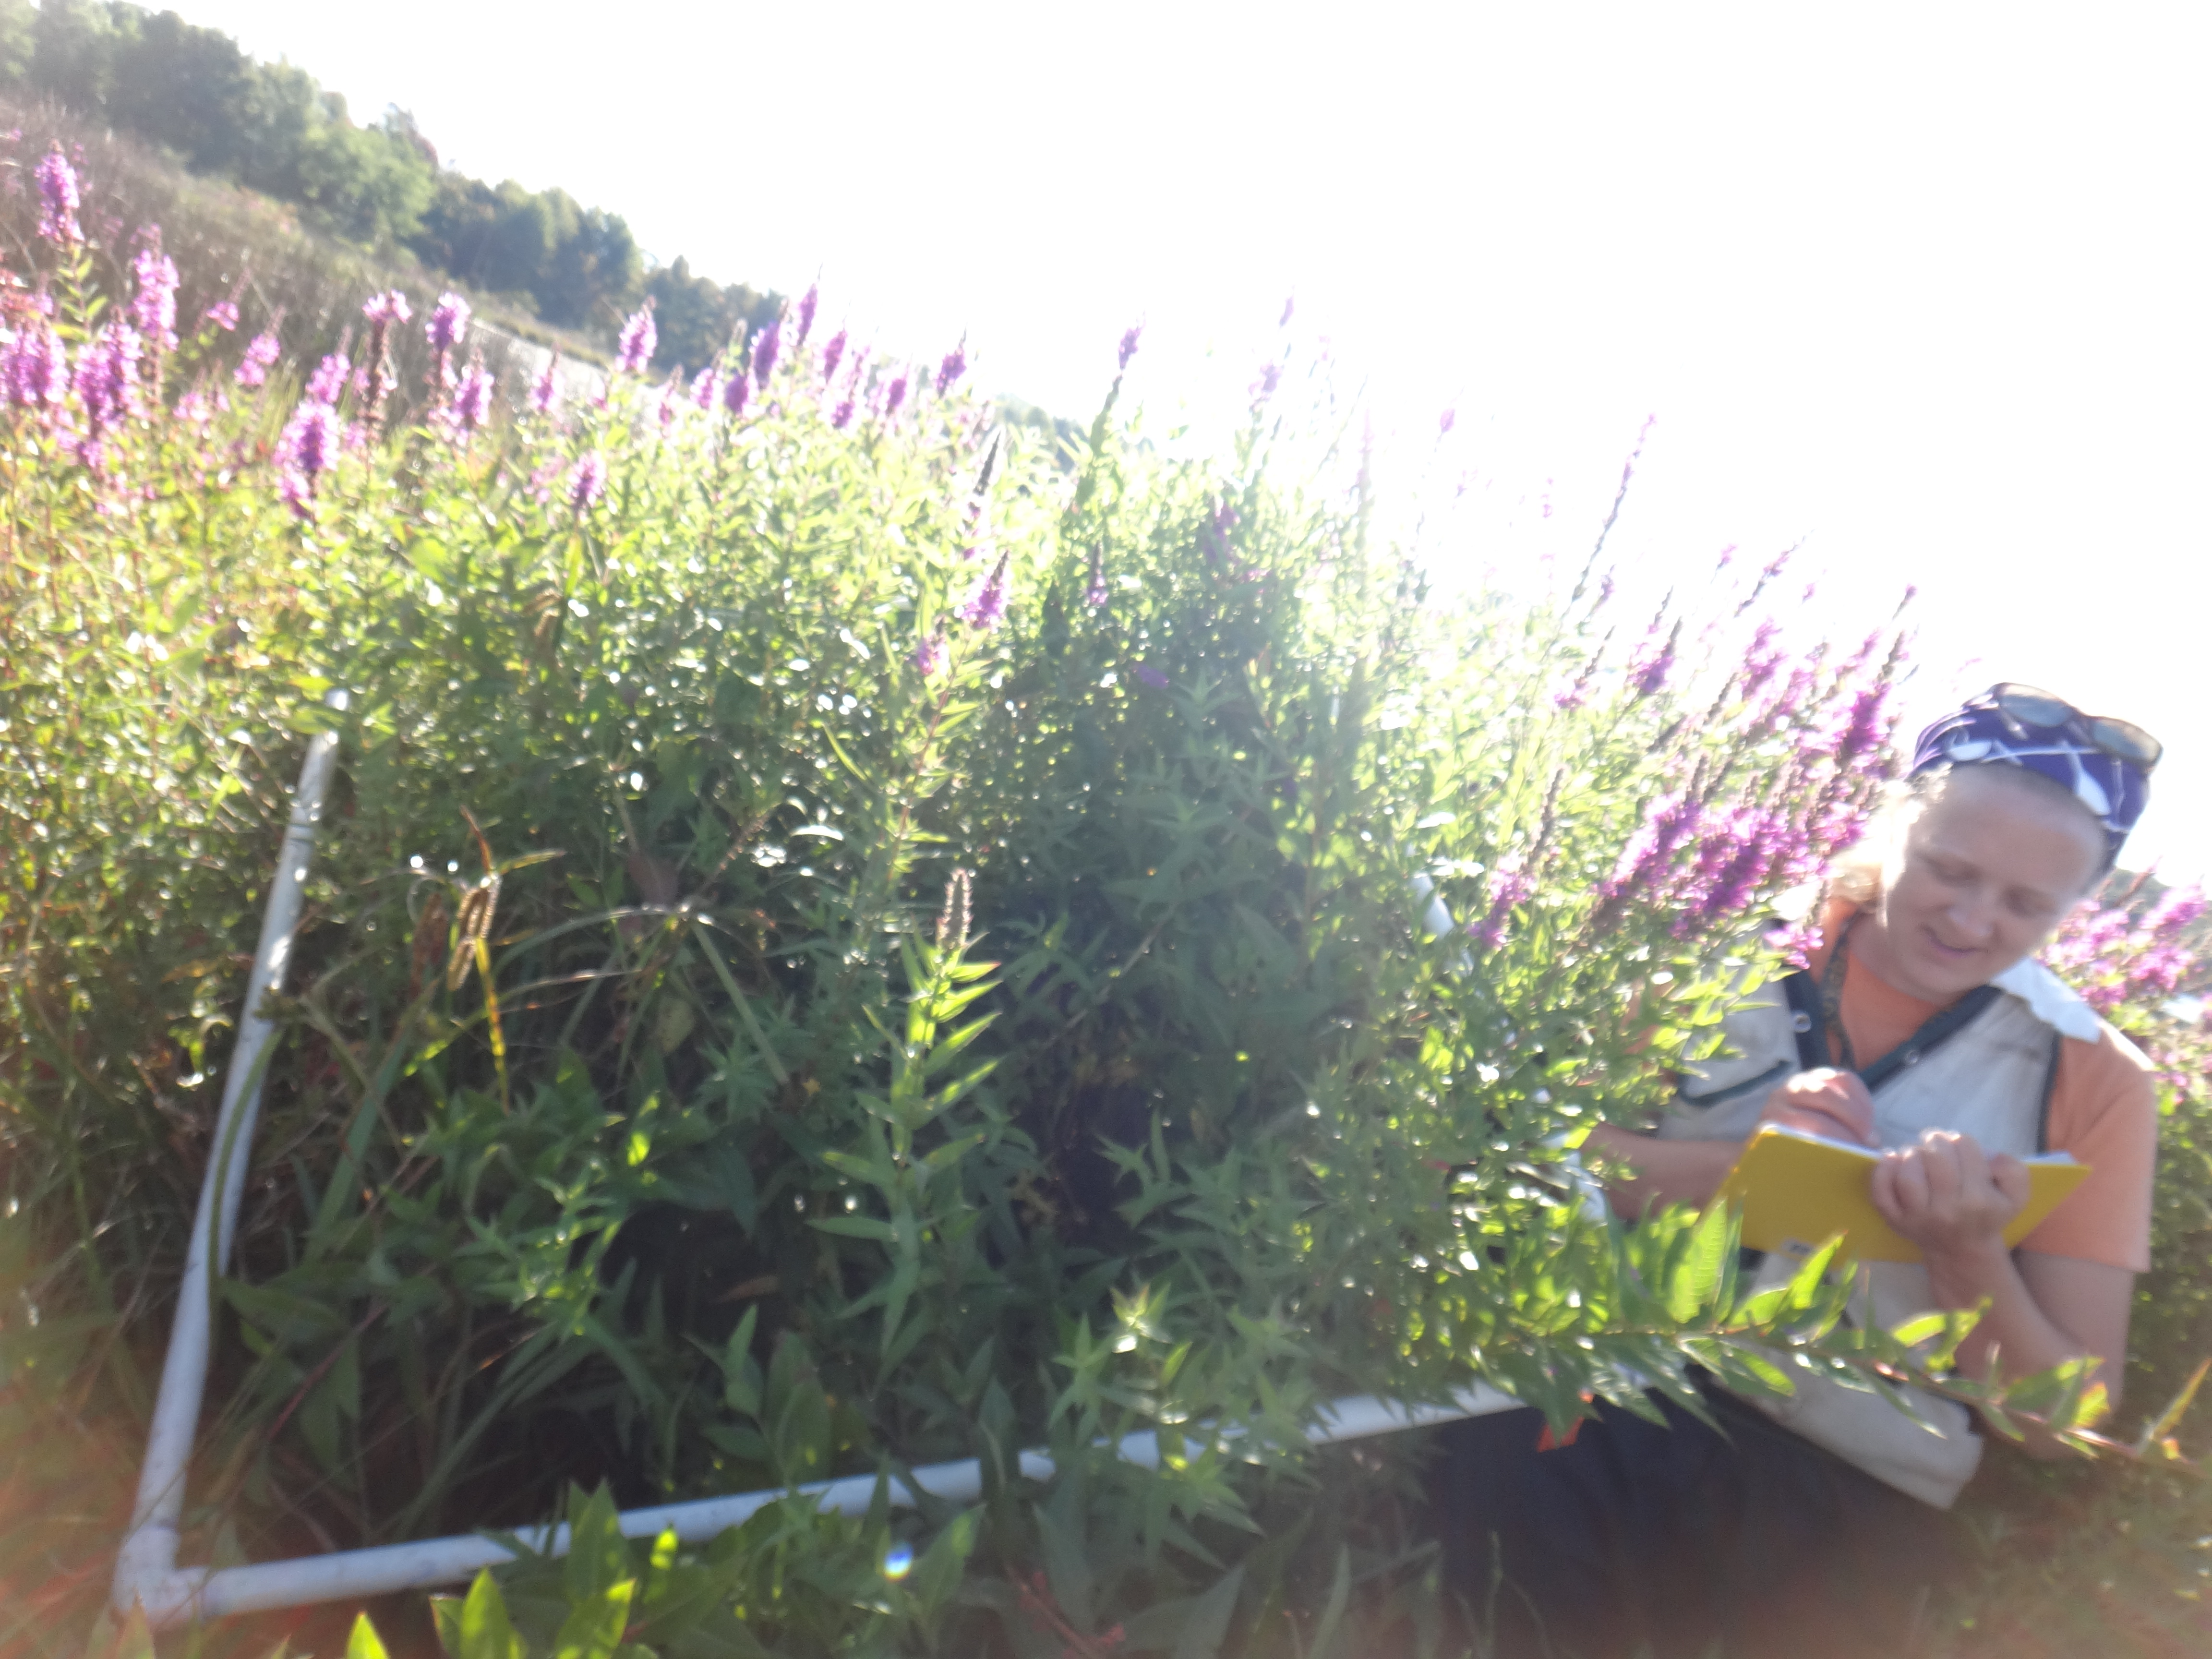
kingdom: Plantae
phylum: Tracheophyta
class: Liliopsida
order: Poales
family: Cyperaceae
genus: Carex
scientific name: Carex comosa
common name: Bristly sedge
